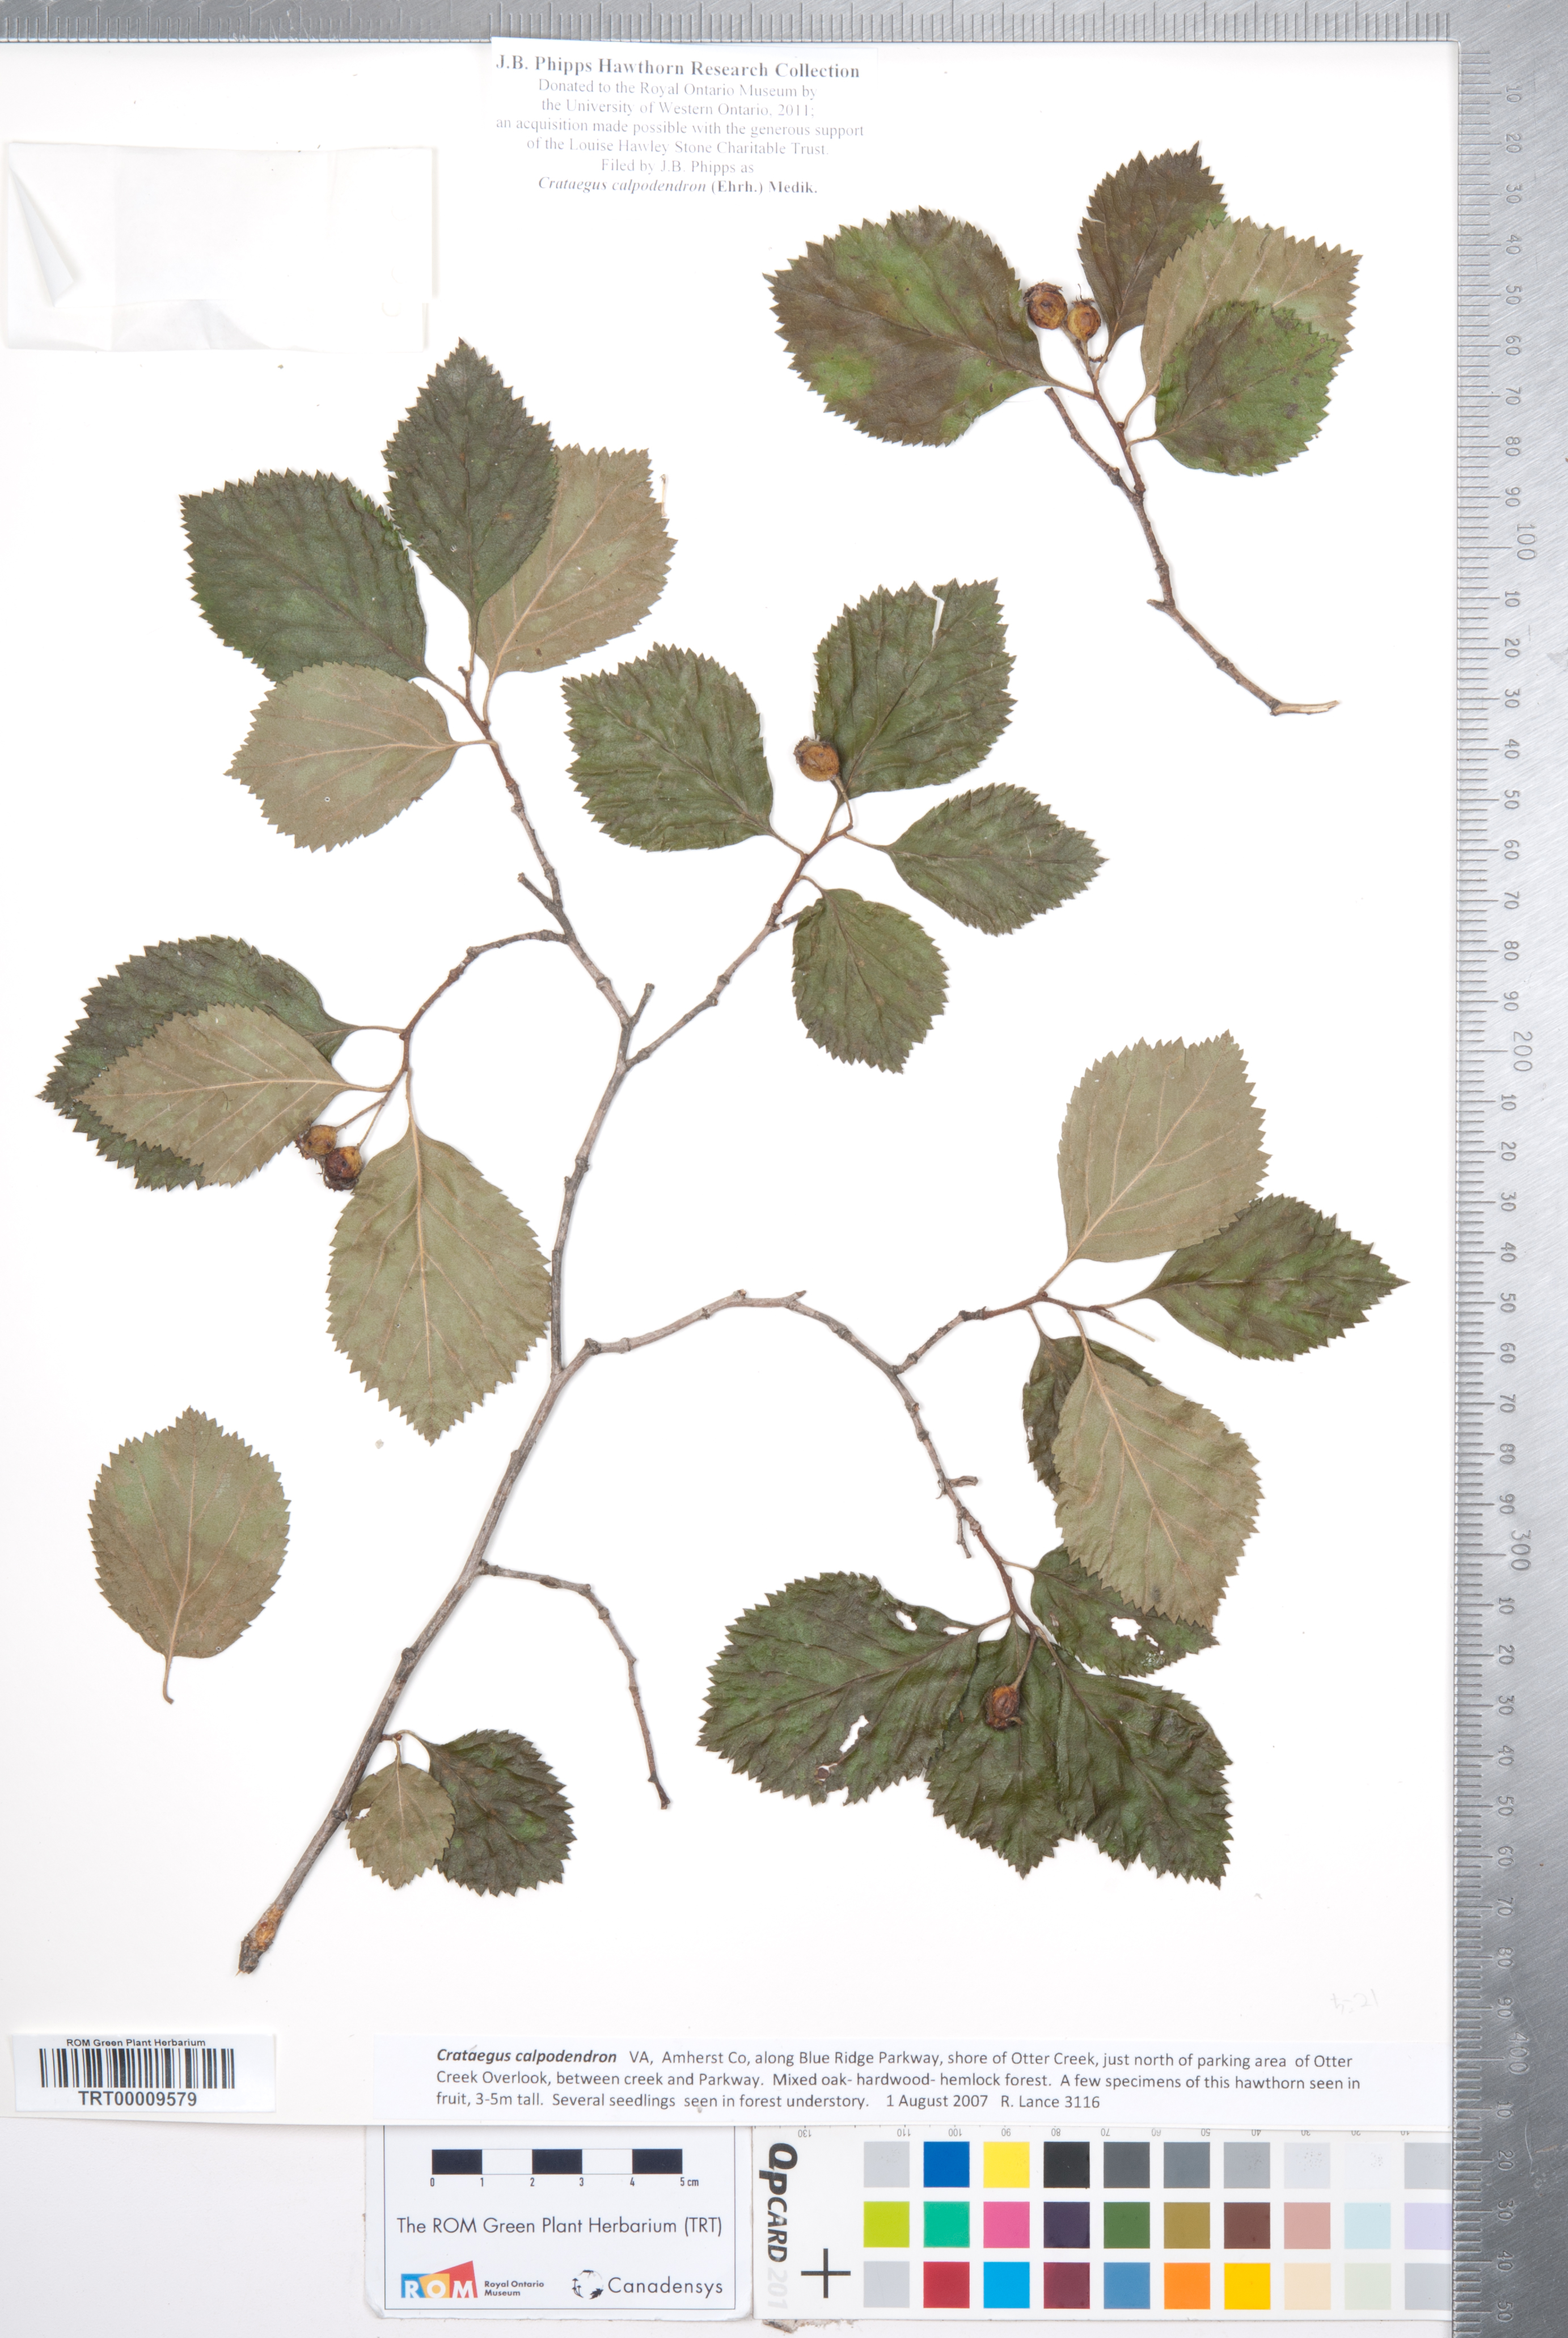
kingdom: Plantae
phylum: Tracheophyta
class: Magnoliopsida
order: Rosales
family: Rosaceae
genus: Crataegus
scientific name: Crataegus calpodendron
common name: Pear hawthorn
